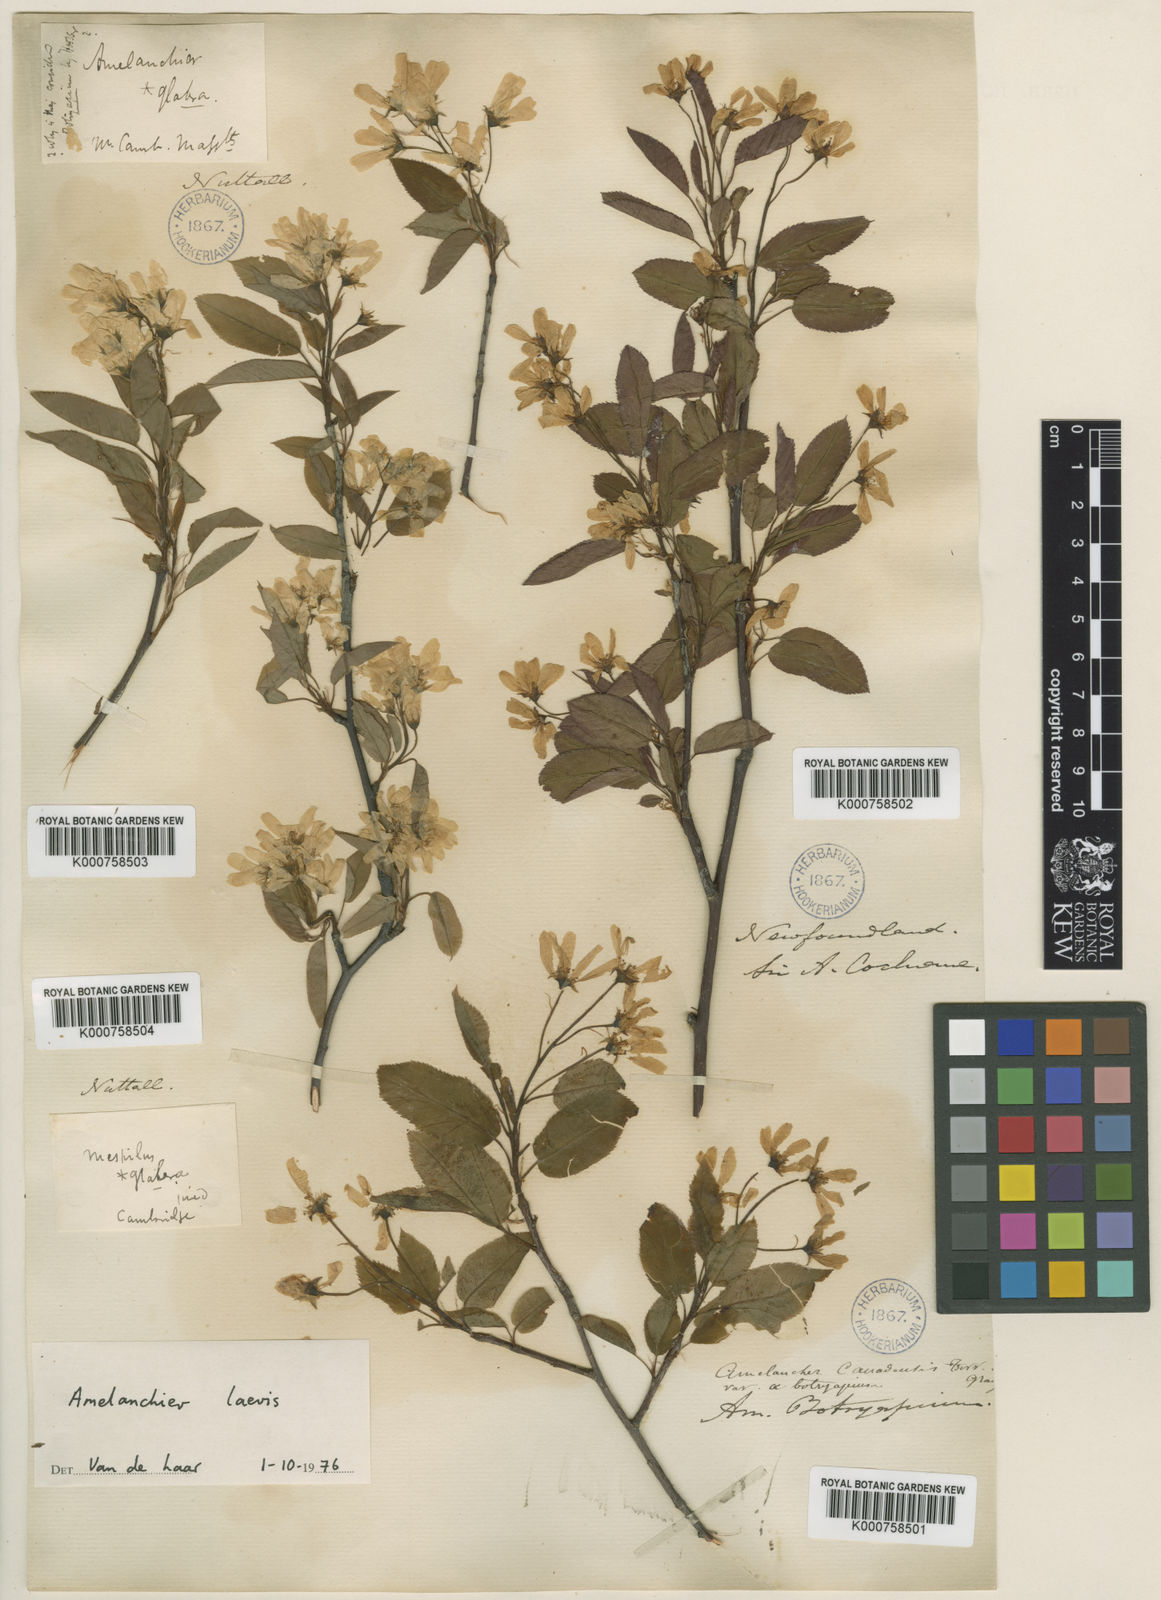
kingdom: Plantae
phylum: Tracheophyta
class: Magnoliopsida
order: Rosales
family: Rosaceae
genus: Amelanchier
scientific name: Amelanchier laevis
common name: Allegheny serviceberry
